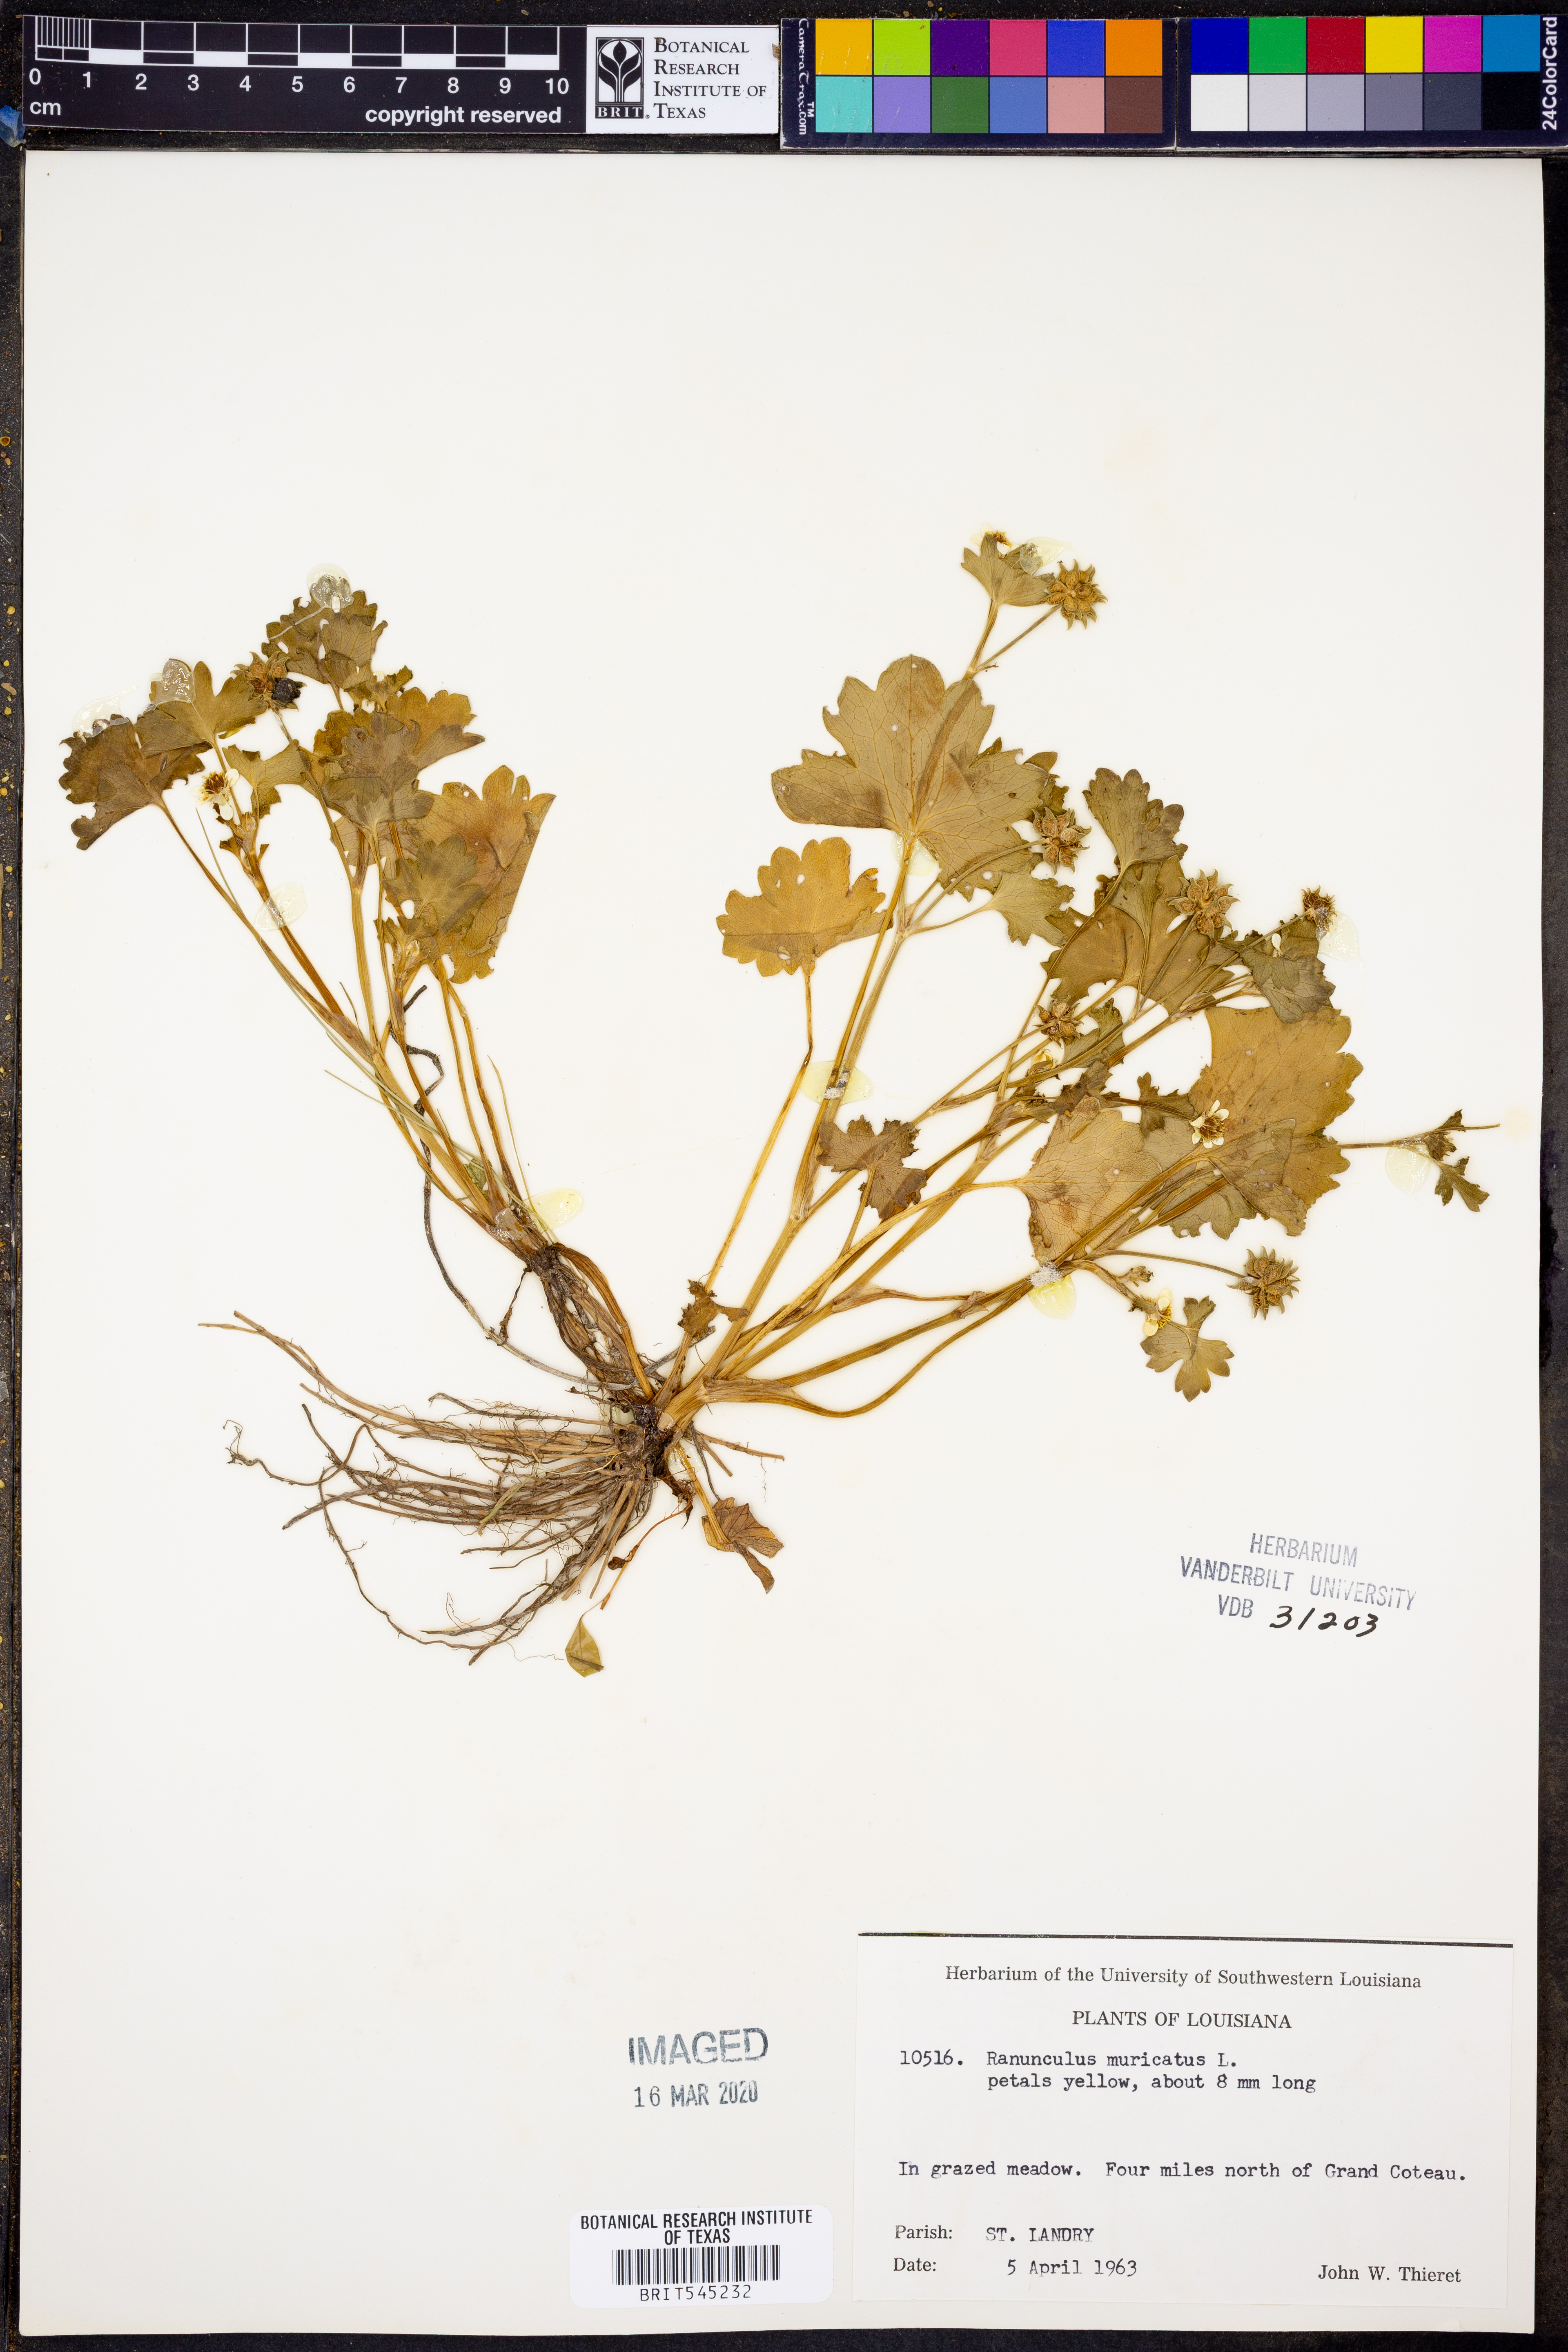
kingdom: Plantae
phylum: Tracheophyta
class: Magnoliopsida
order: Ranunculales
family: Ranunculaceae
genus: Ranunculus
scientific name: Ranunculus muricatus
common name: Rough-fruited buttercup
